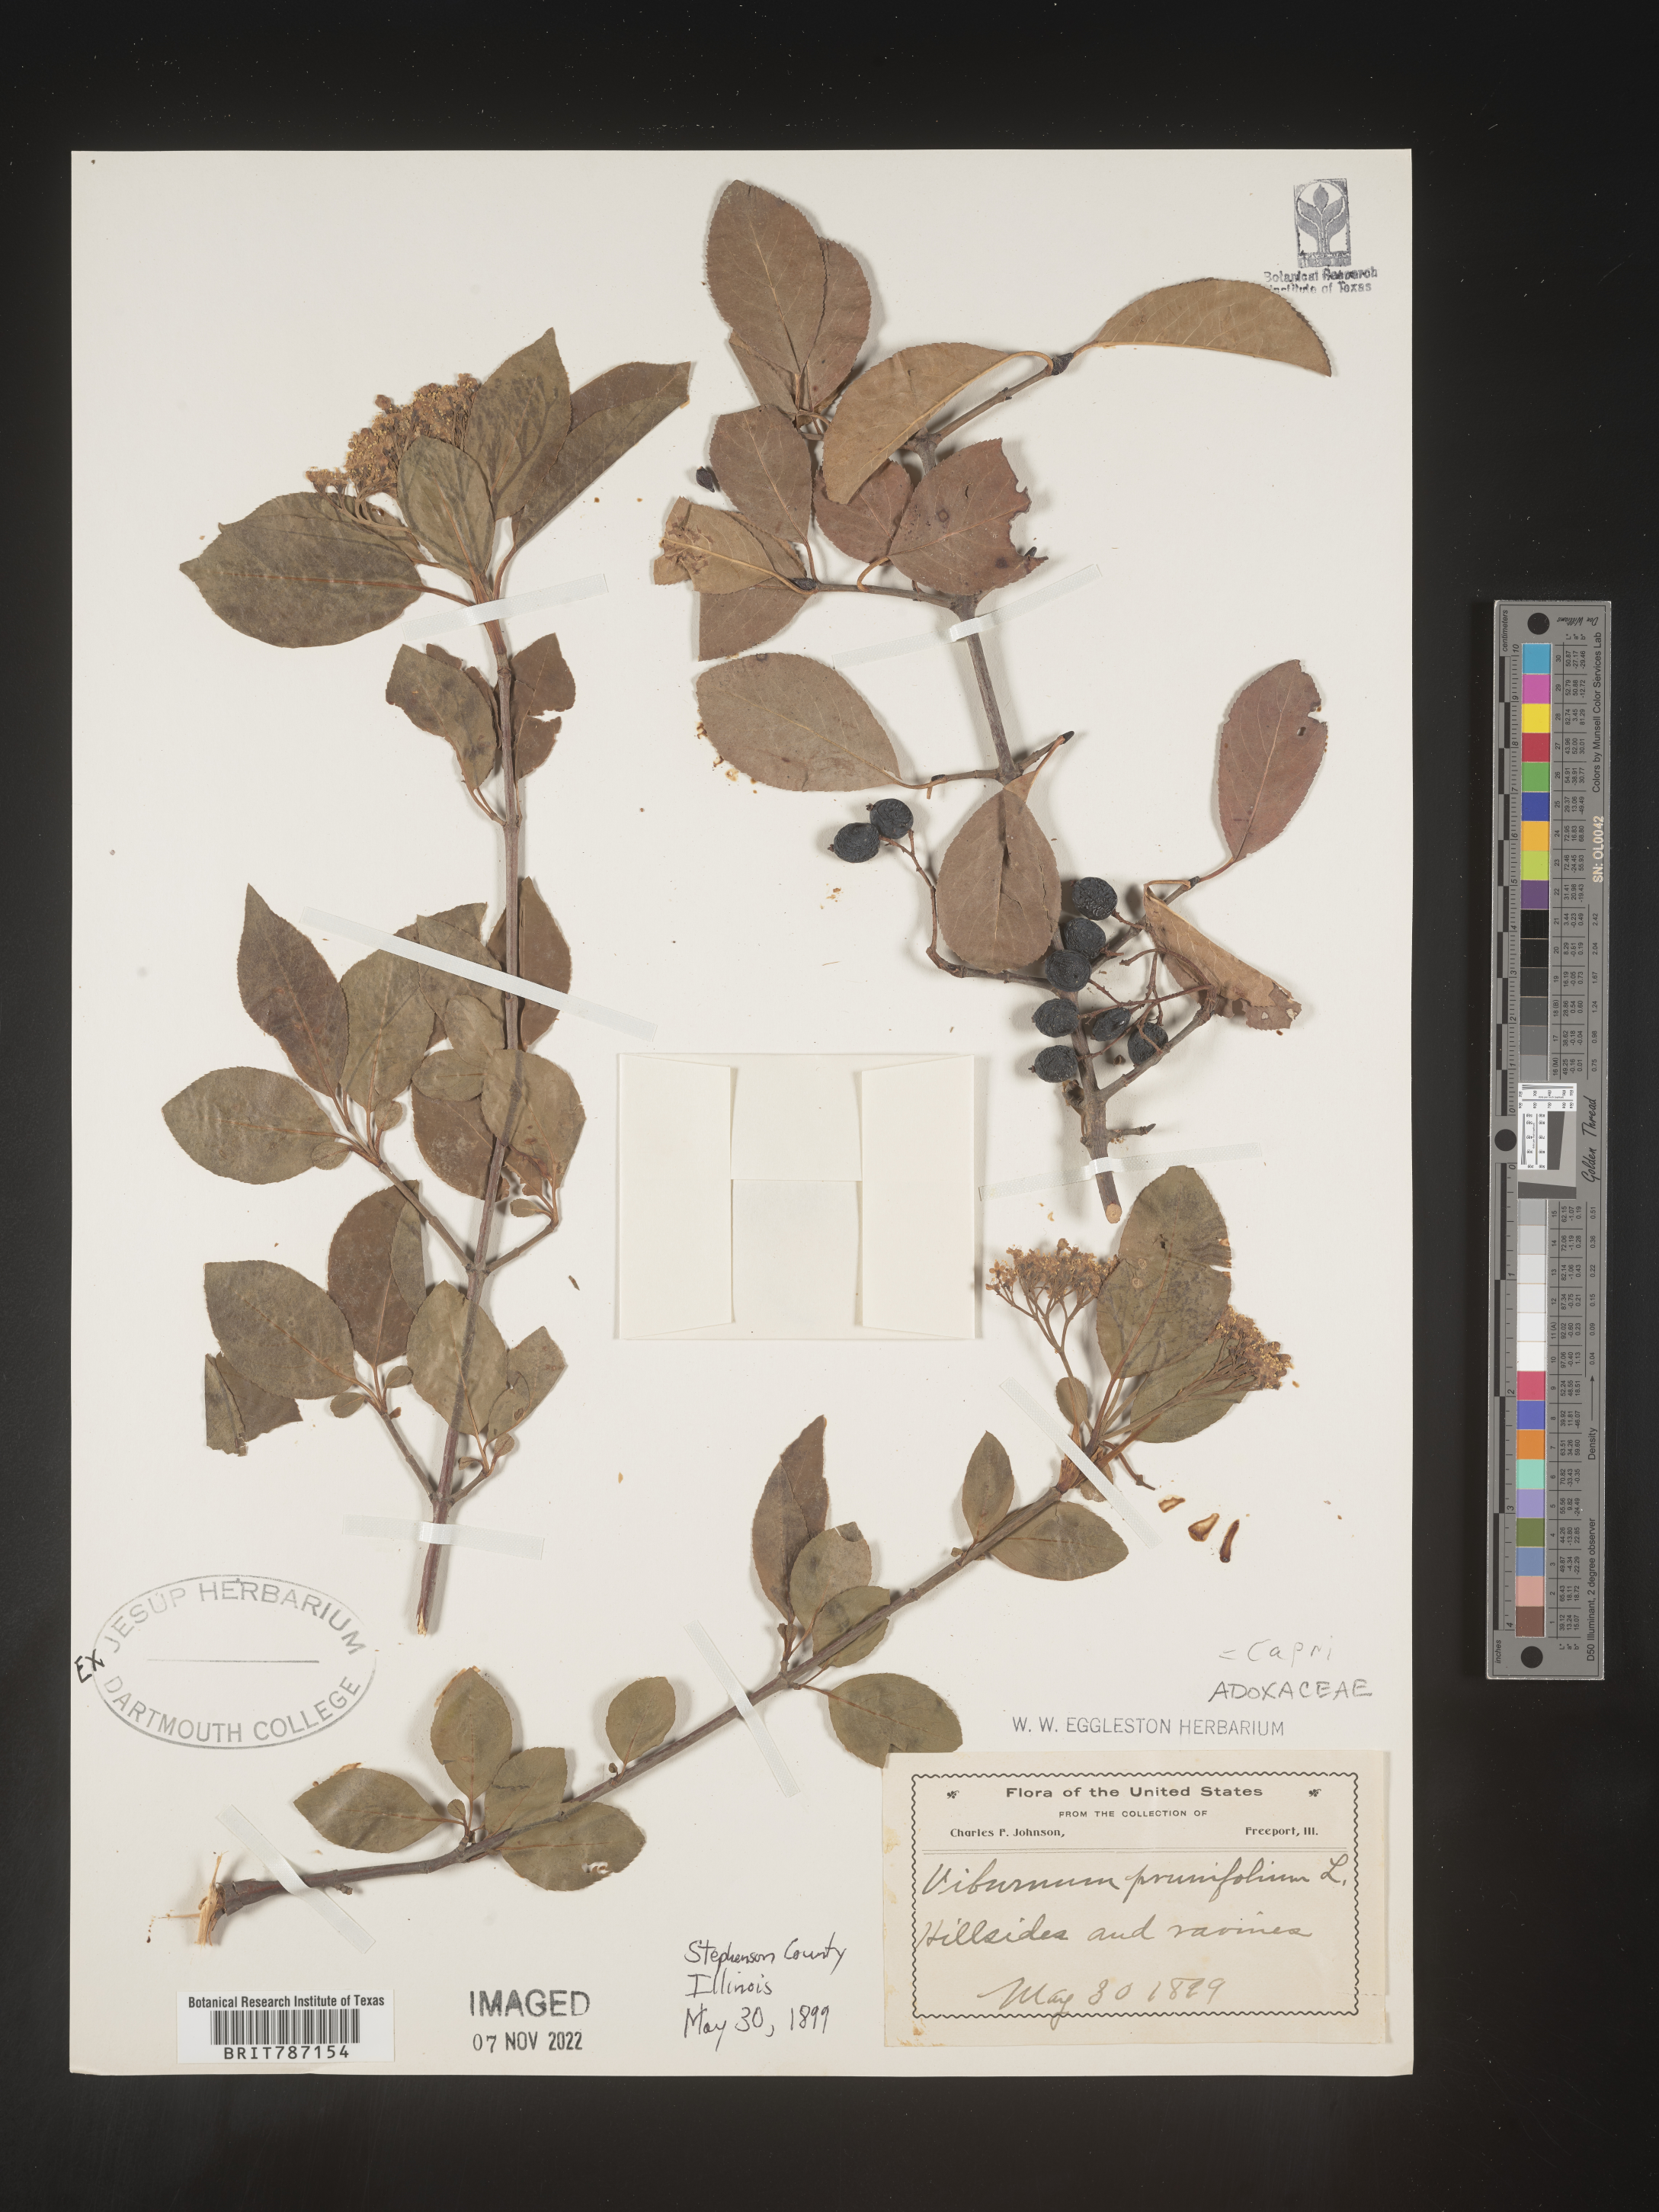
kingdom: Plantae
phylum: Tracheophyta
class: Magnoliopsida
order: Dipsacales
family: Viburnaceae
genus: Viburnum
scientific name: Viburnum prunifolium
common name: Black haw
